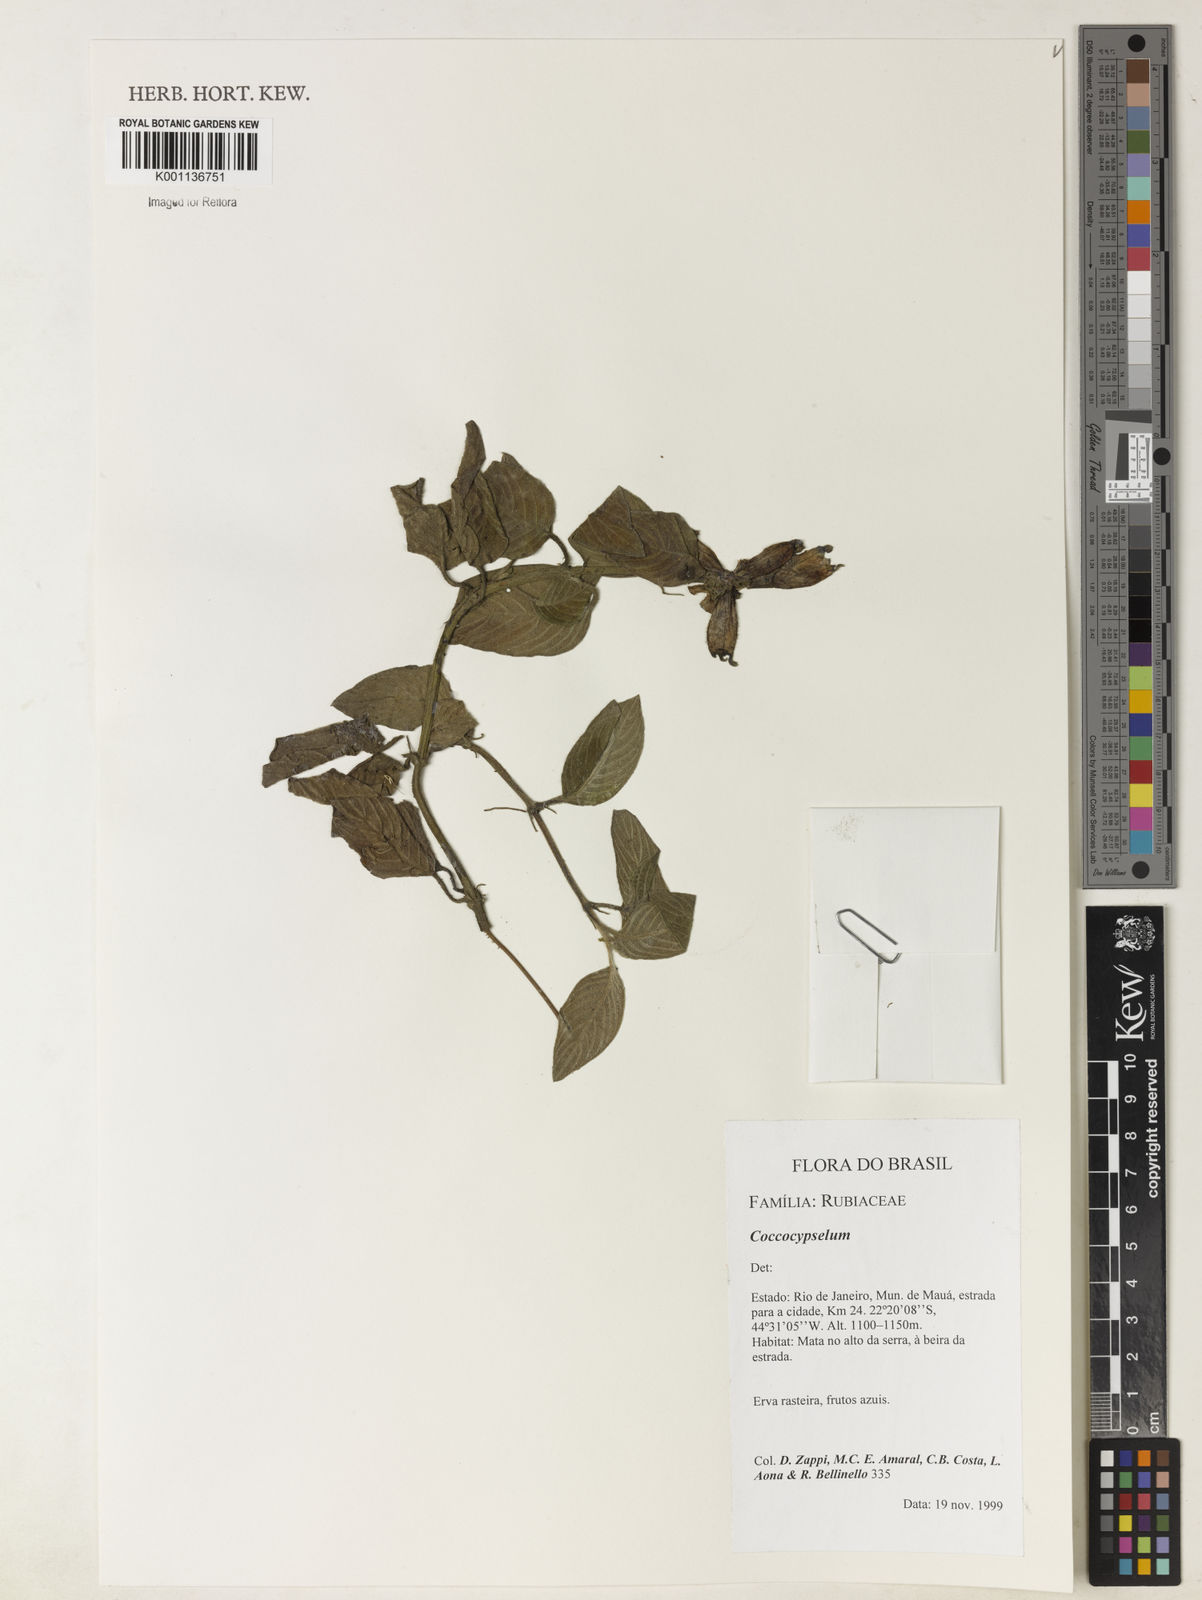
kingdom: Plantae
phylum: Tracheophyta
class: Magnoliopsida
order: Gentianales
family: Rubiaceae
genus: Coccocypselum
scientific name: Coccocypselum
